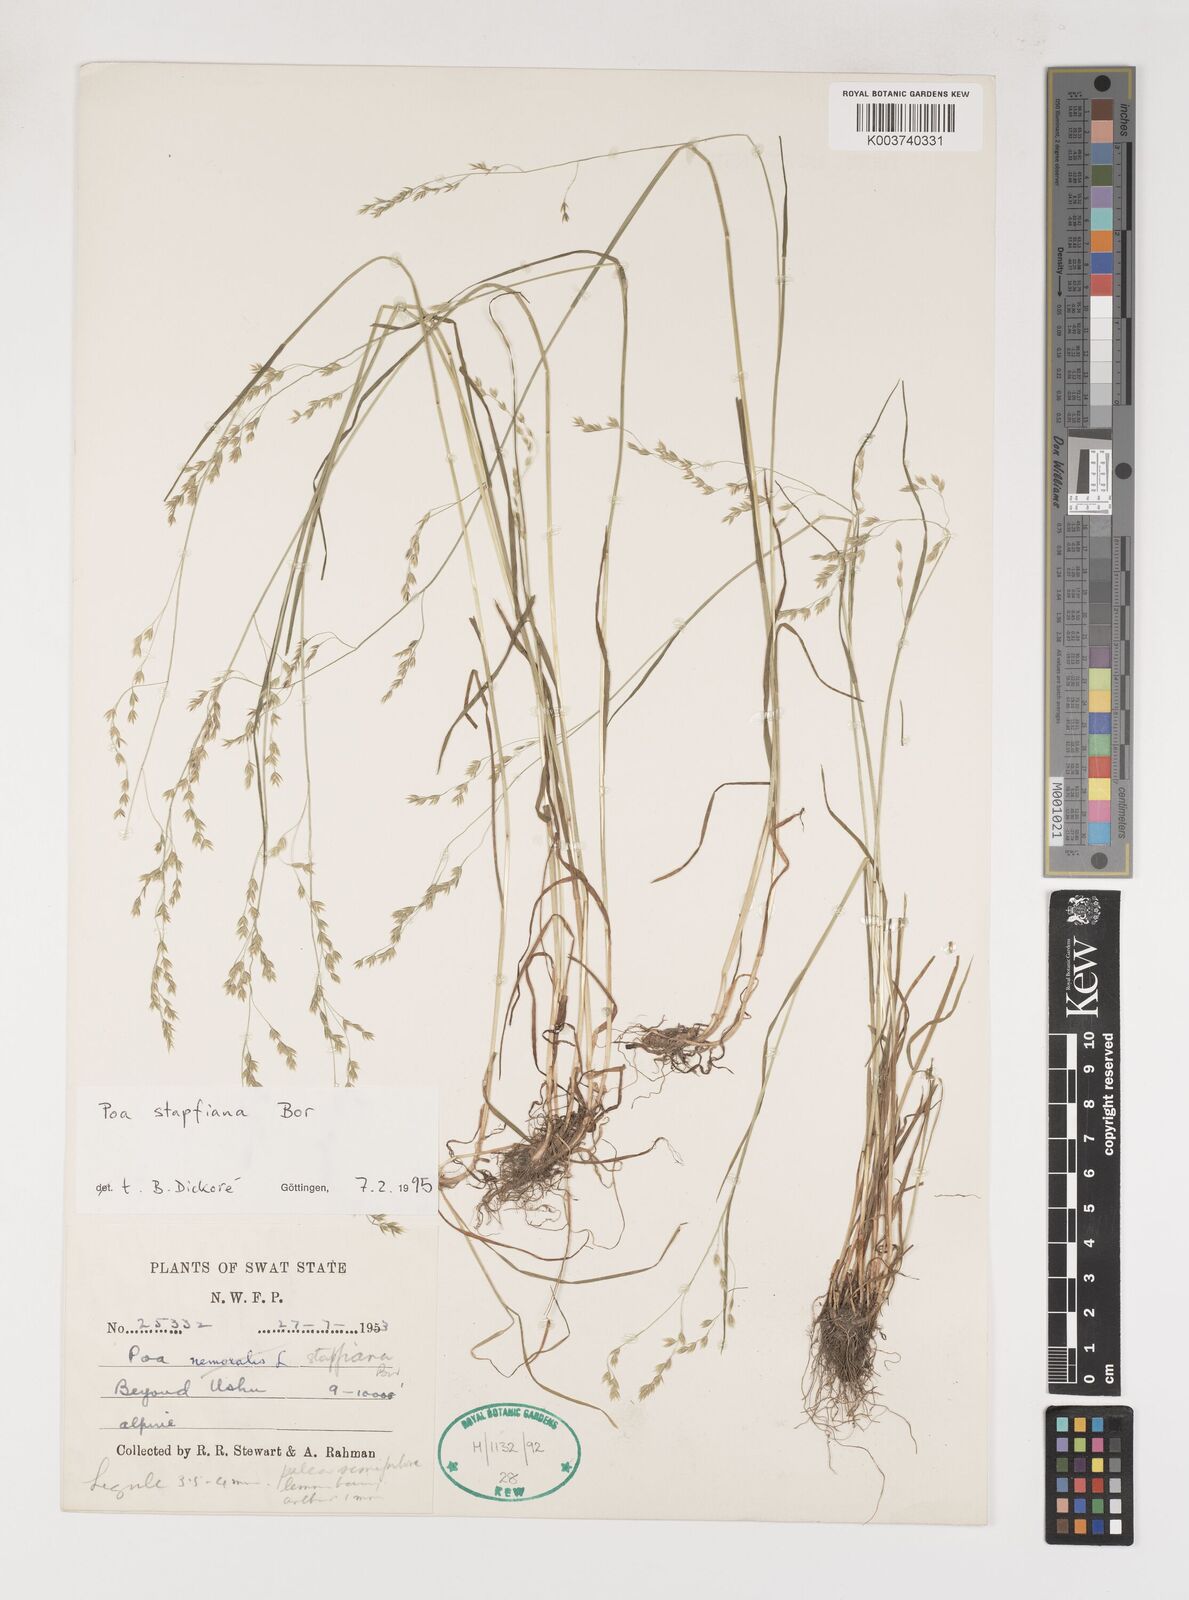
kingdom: Plantae
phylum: Tracheophyta
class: Liliopsida
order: Poales
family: Poaceae
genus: Poa
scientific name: Poa stapfiana
